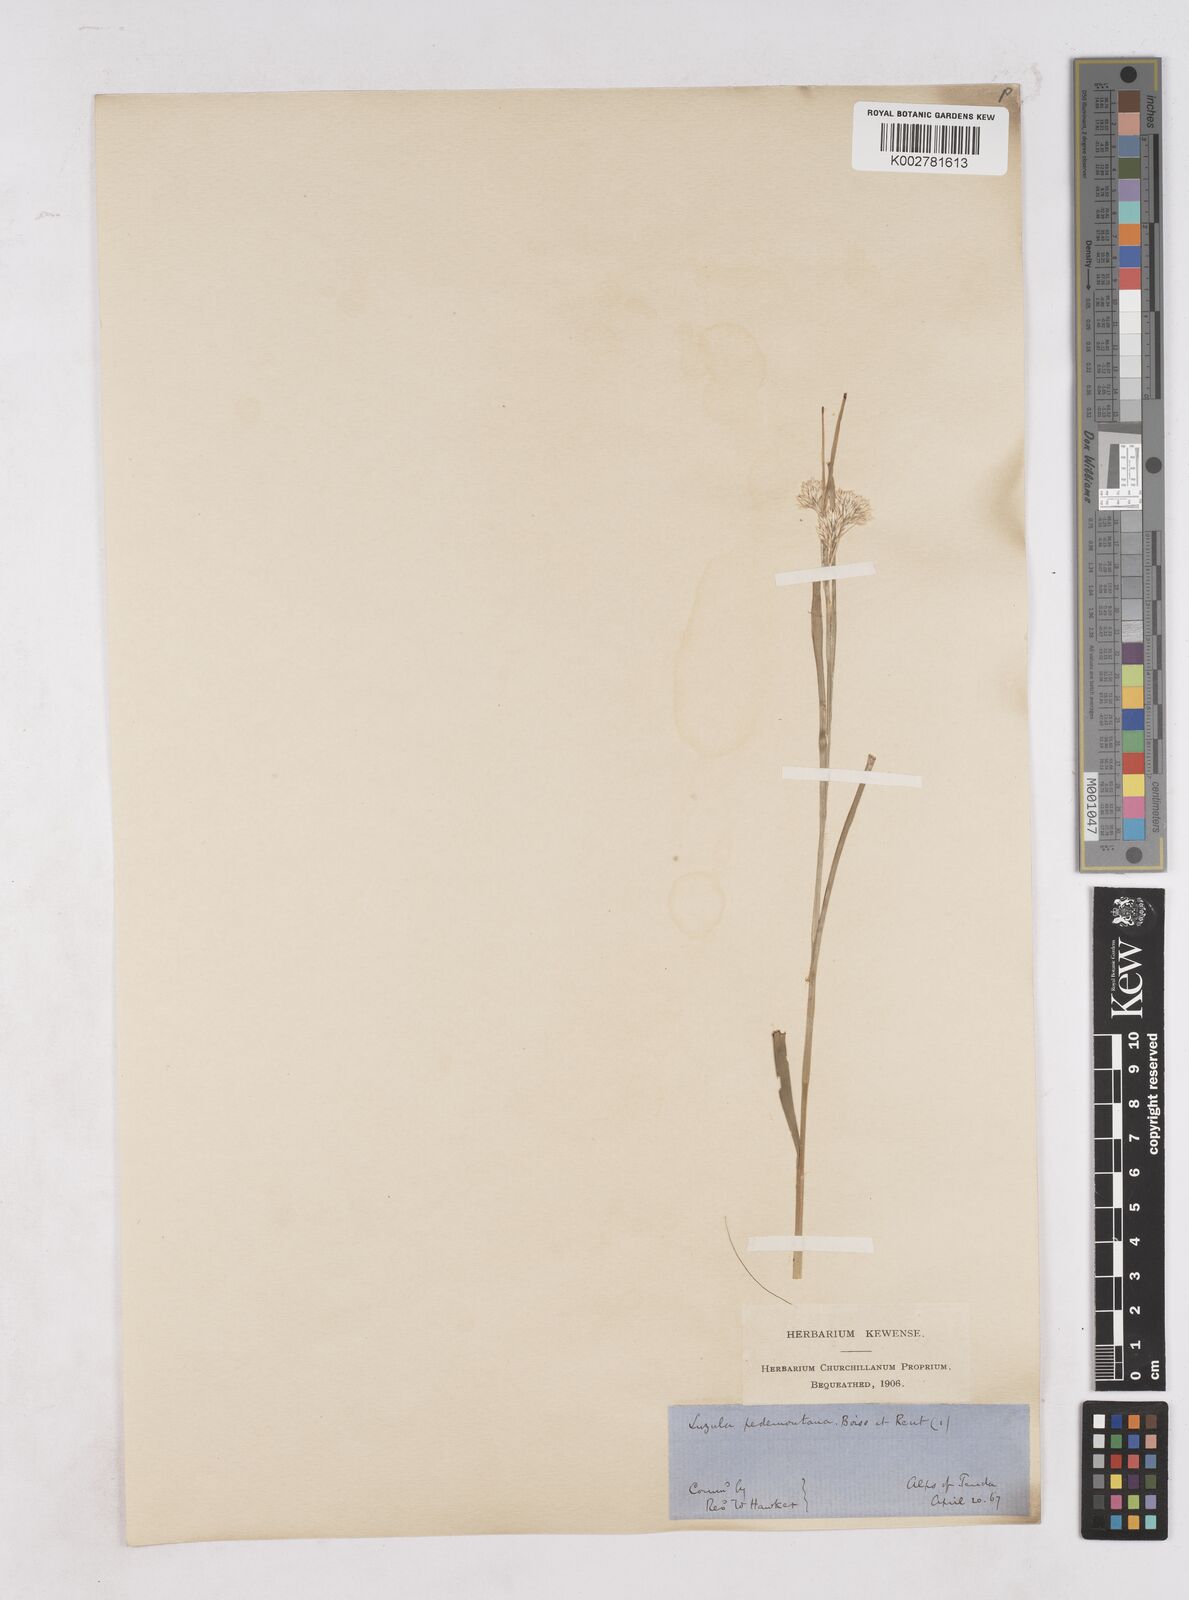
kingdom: Plantae
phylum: Tracheophyta
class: Liliopsida
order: Poales
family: Juncaceae
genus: Luzula
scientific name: Luzula pedemontana
